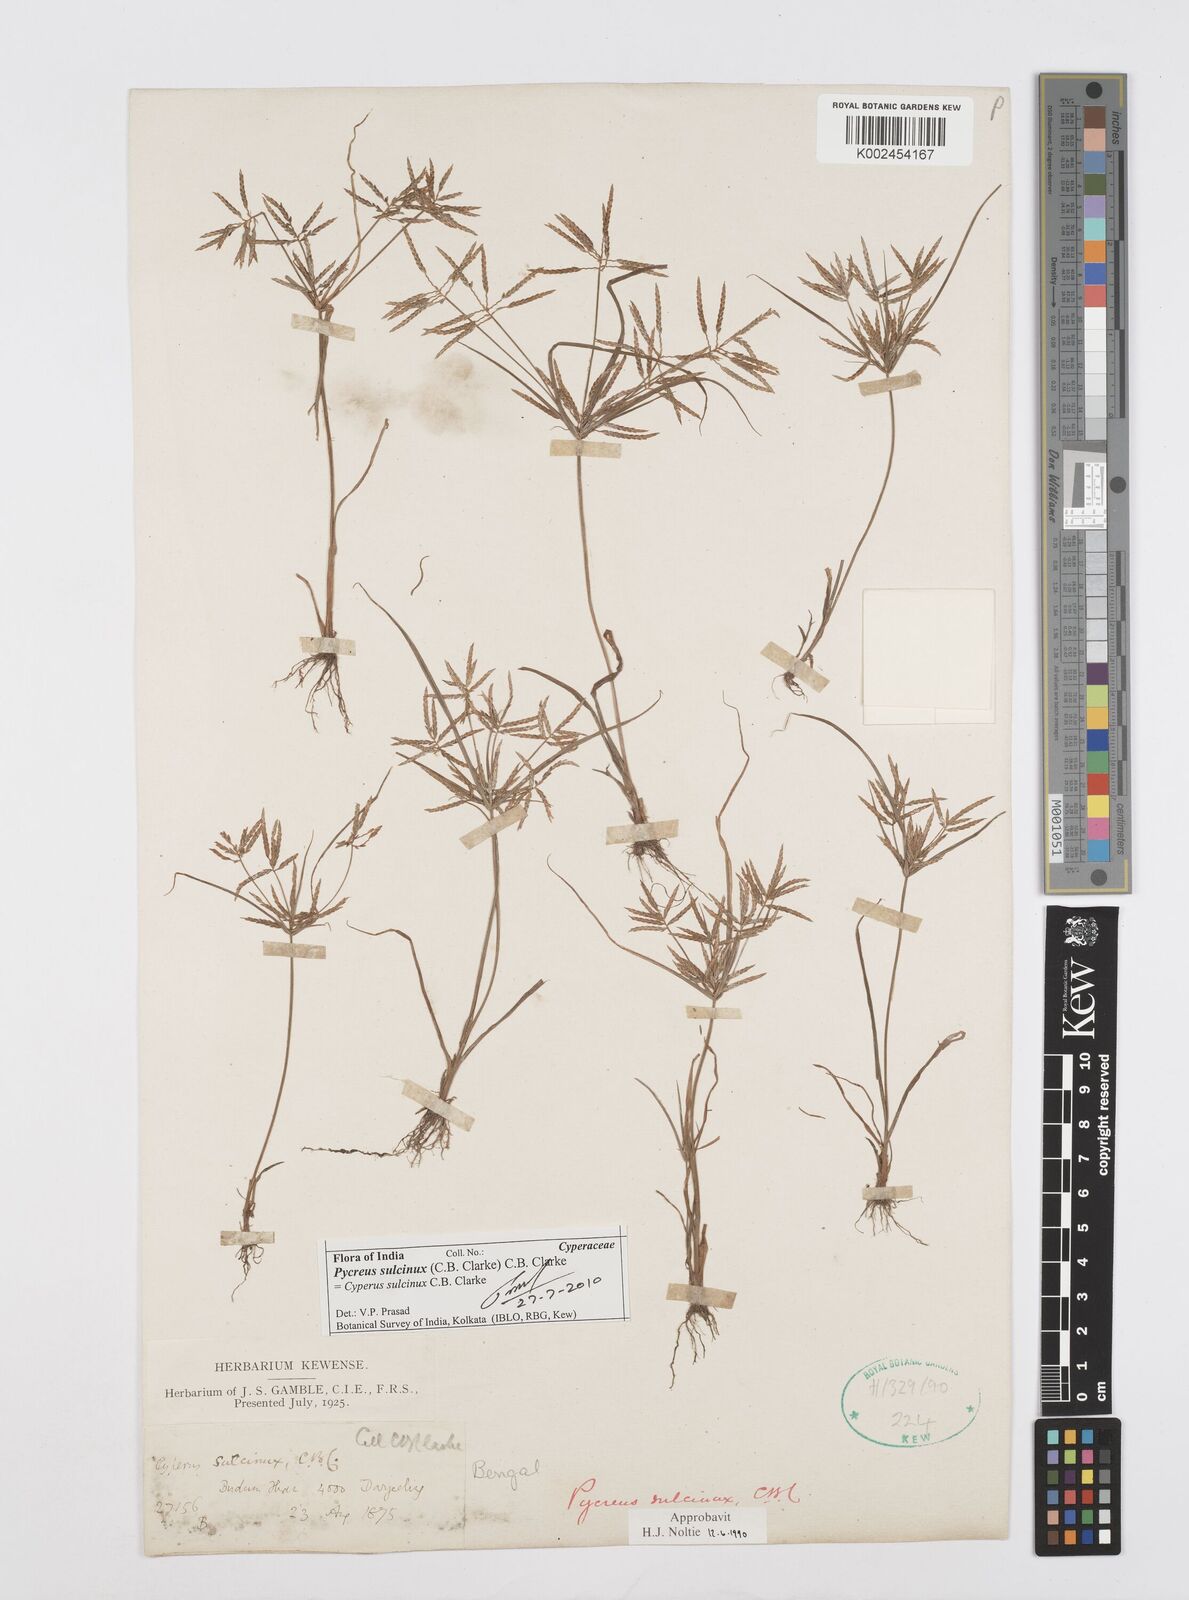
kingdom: Plantae
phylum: Tracheophyta
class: Liliopsida
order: Poales
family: Cyperaceae
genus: Cyperus
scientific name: Cyperus sulcinux
